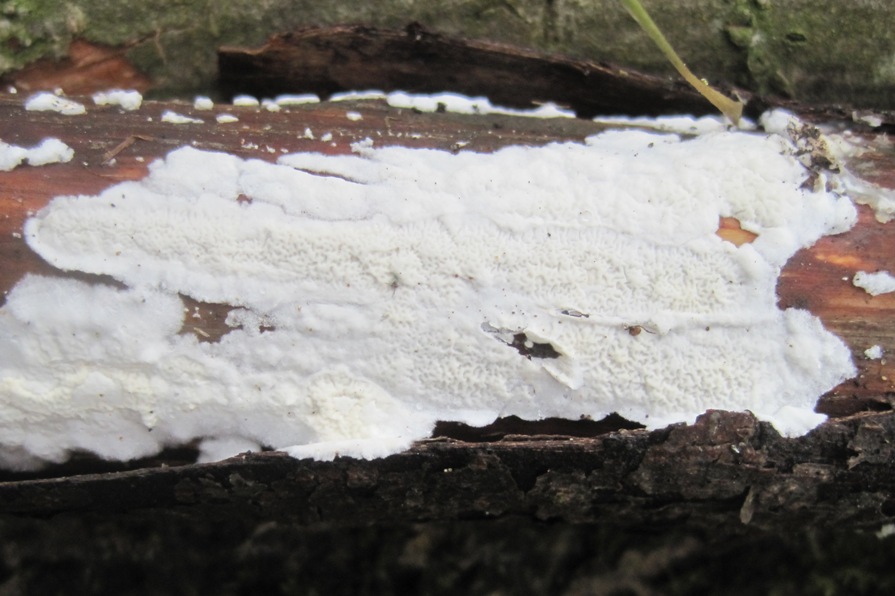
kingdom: Fungi
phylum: Basidiomycota
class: Agaricomycetes
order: Polyporales
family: Irpicaceae
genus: Byssomerulius
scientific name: Byssomerulius corium
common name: læder-åresvamp
